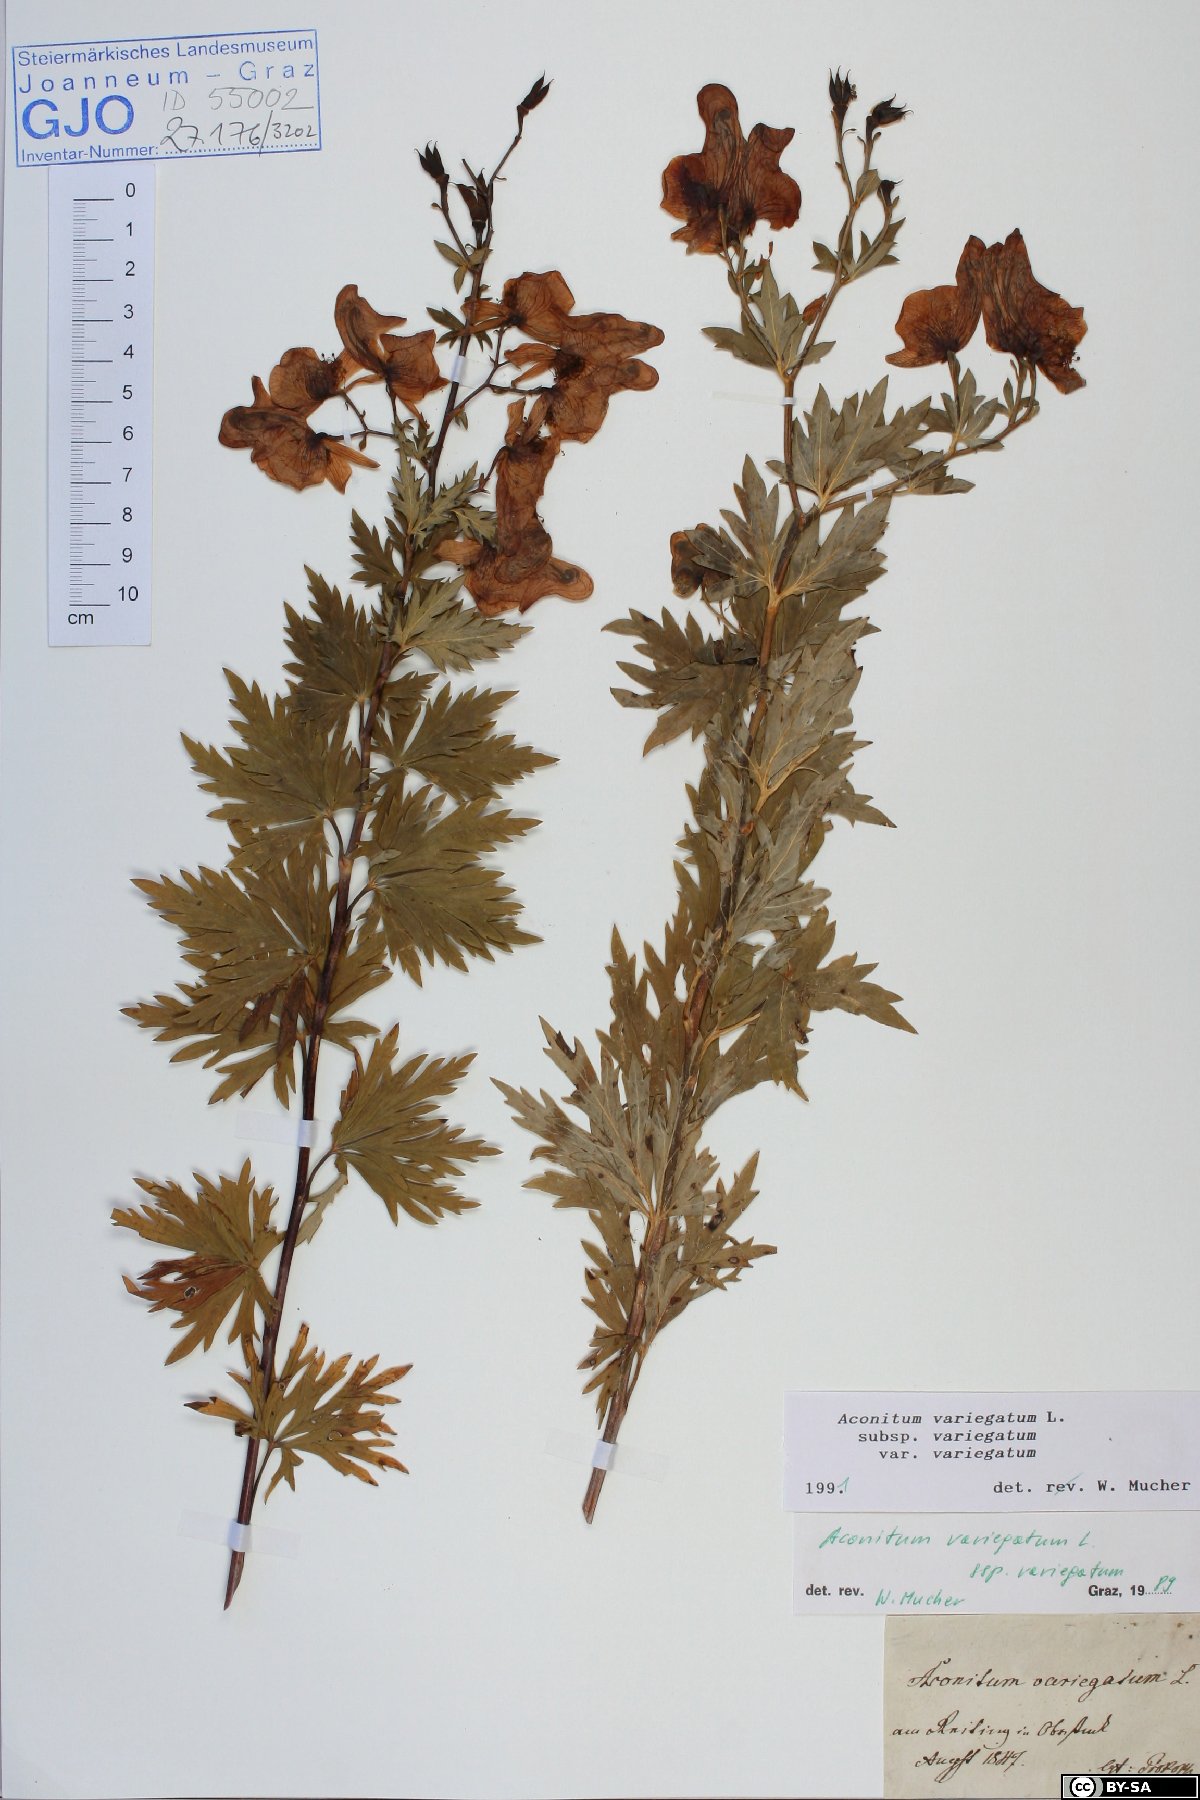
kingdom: Plantae
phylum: Tracheophyta
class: Magnoliopsida
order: Ranunculales
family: Ranunculaceae
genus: Aconitum
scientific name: Aconitum variegatum
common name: Manchurian monkshood
